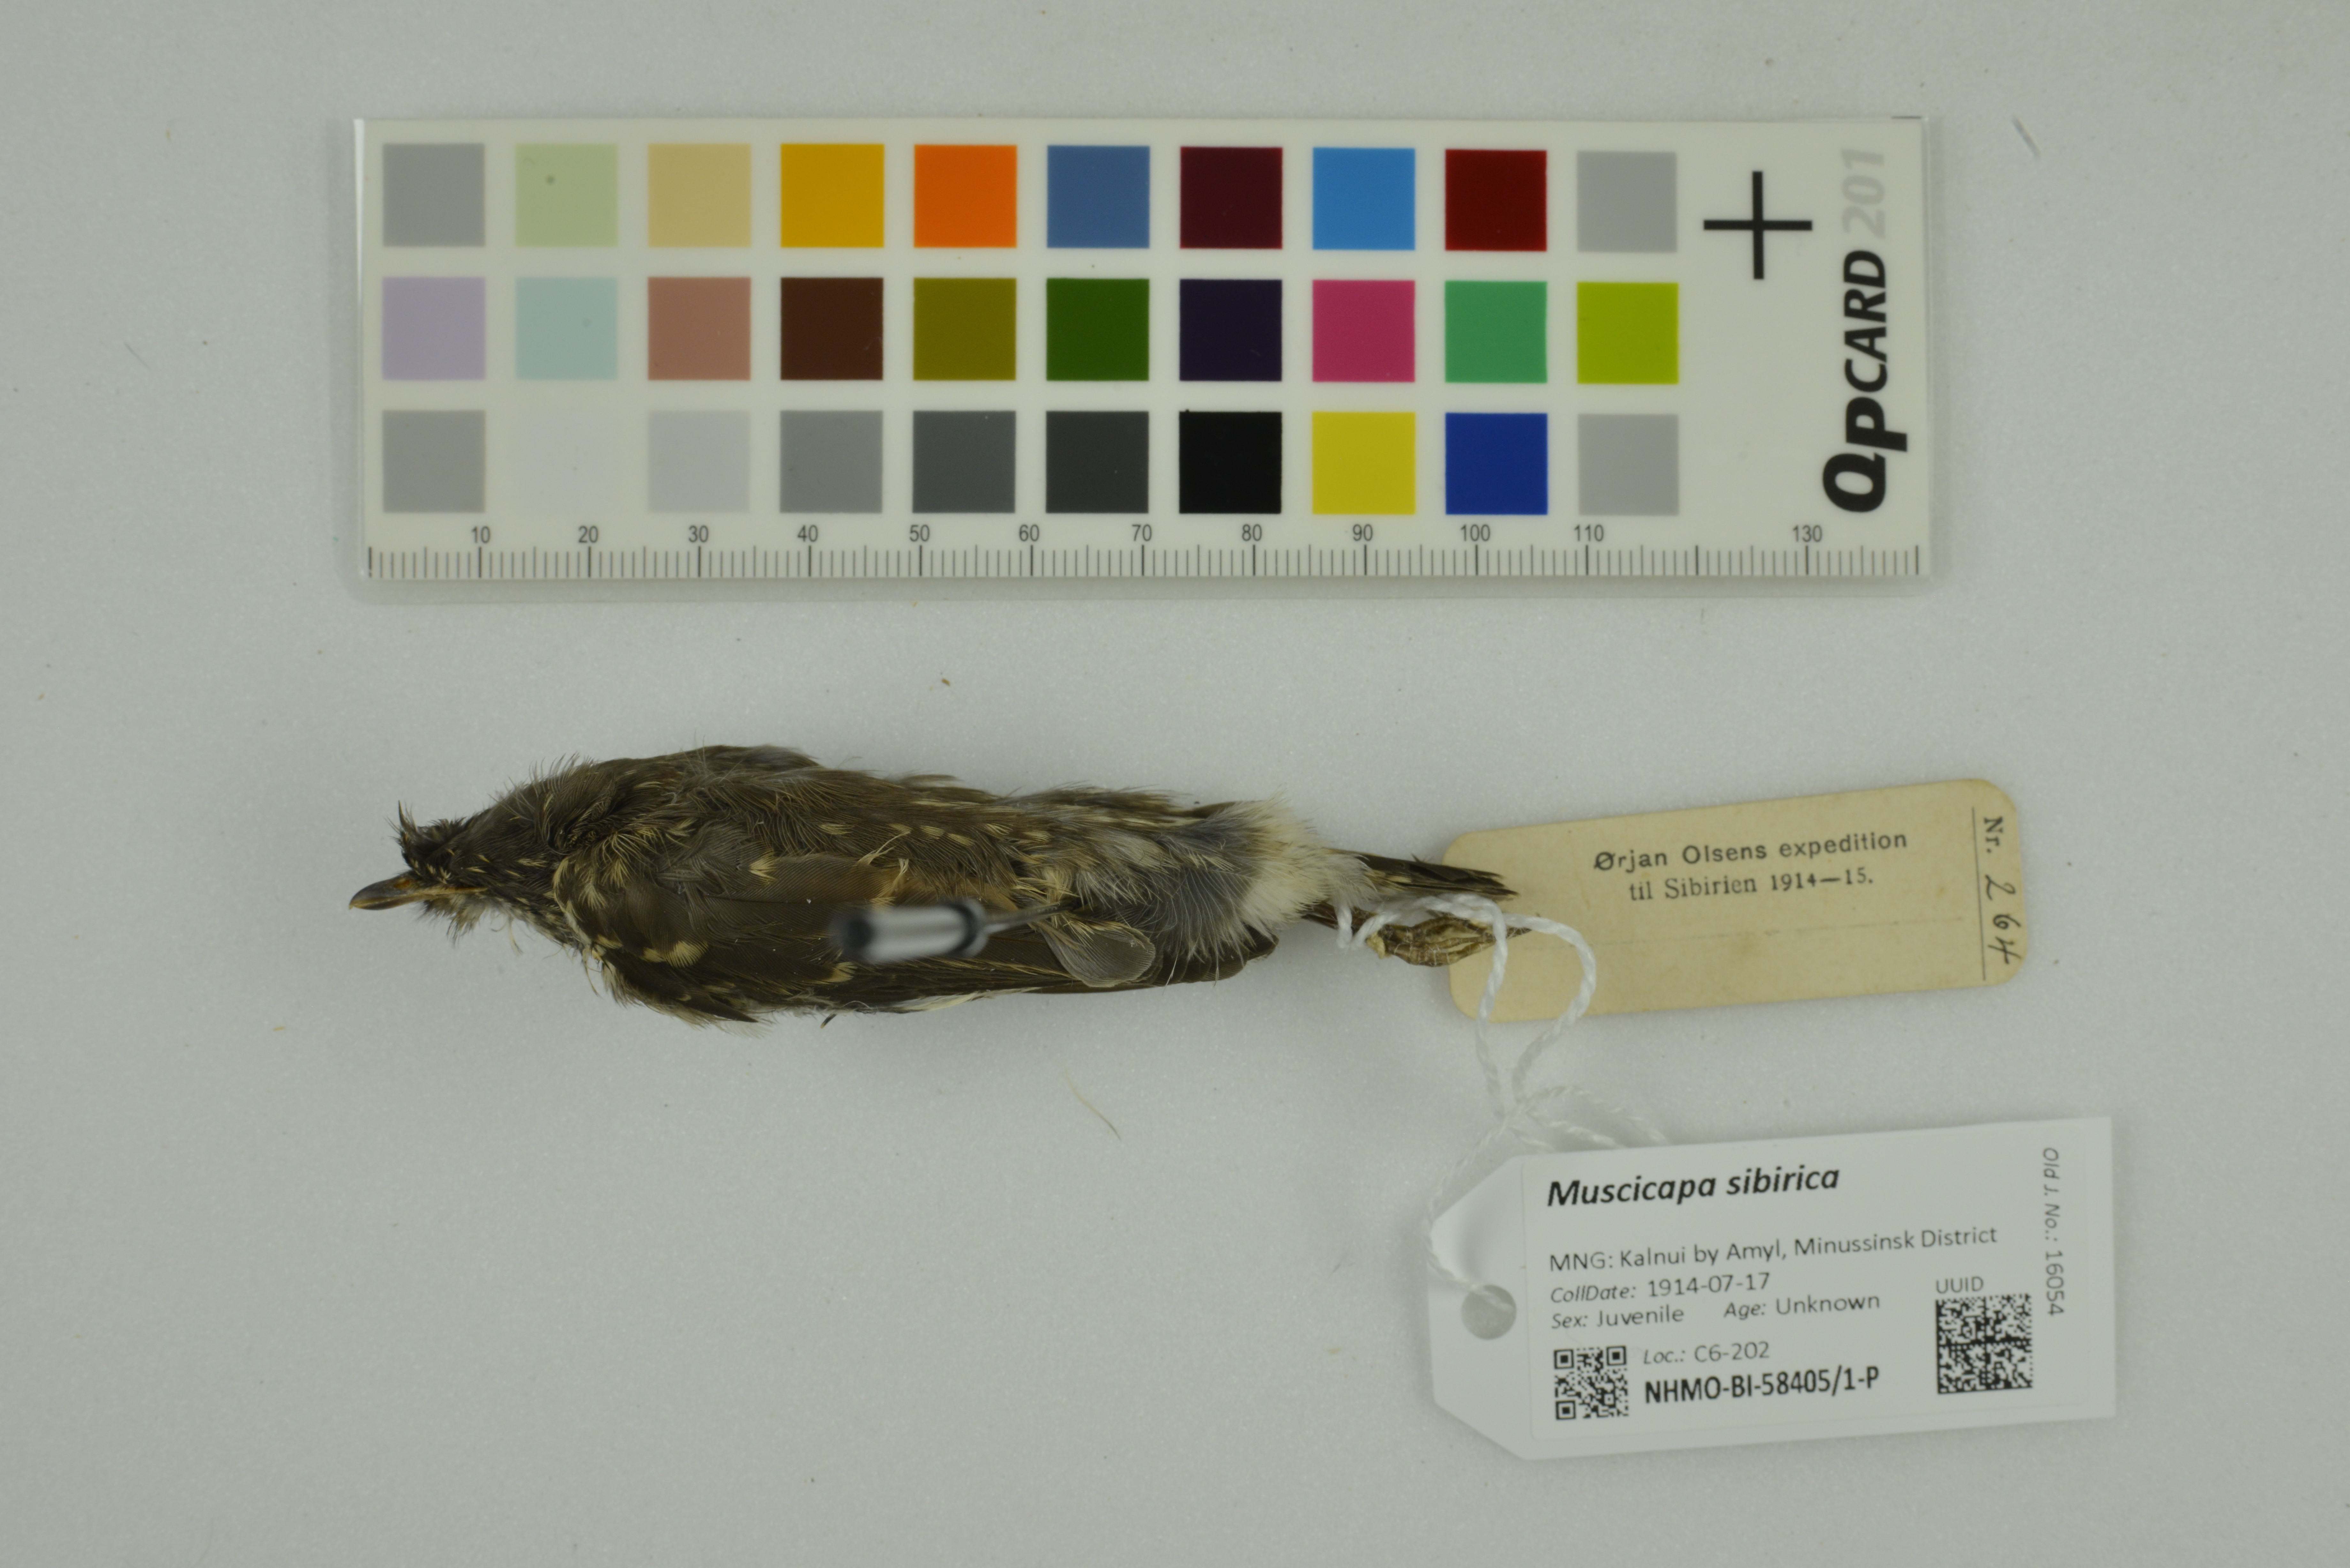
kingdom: Animalia
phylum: Chordata
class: Aves
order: Passeriformes
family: Muscicapidae
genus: Muscicapa
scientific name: Muscicapa sibirica
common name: Dark-sided flycatcher
